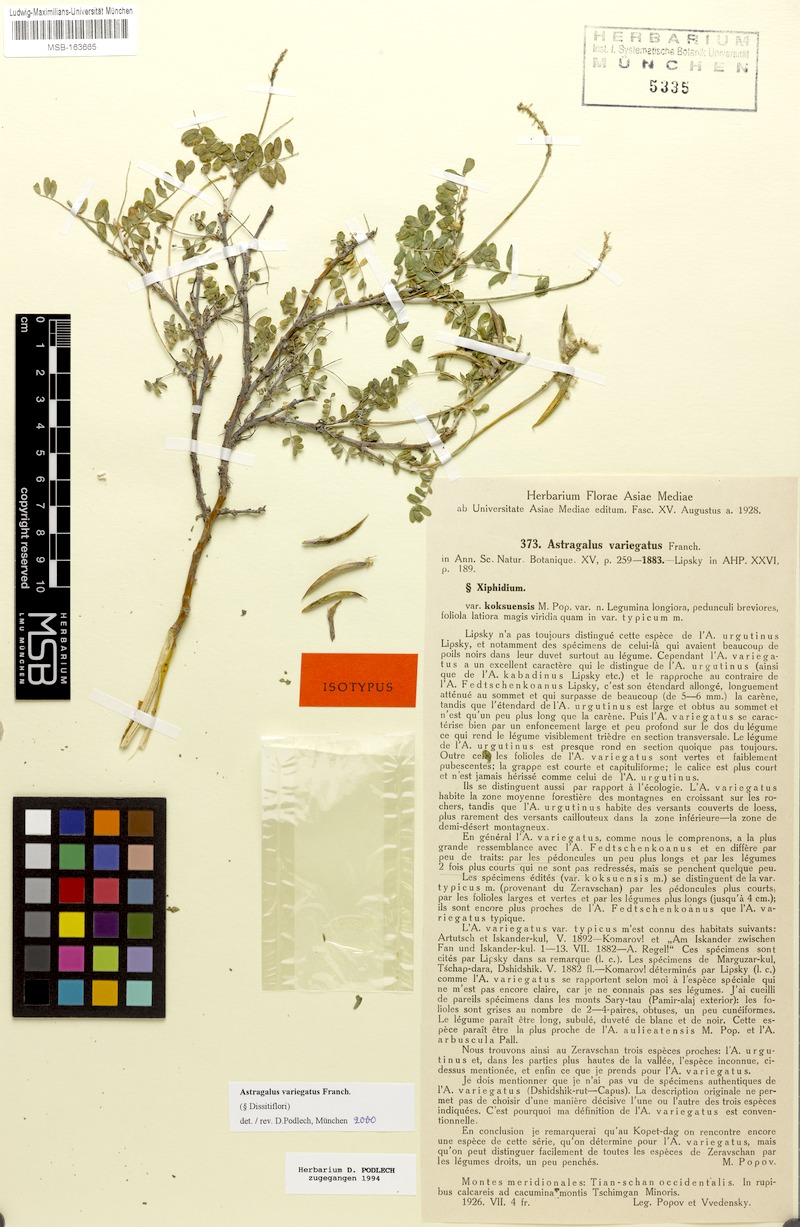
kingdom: Plantae
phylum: Tracheophyta
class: Magnoliopsida
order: Fabales
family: Fabaceae
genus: Astragalus
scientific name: Astragalus variegatus
